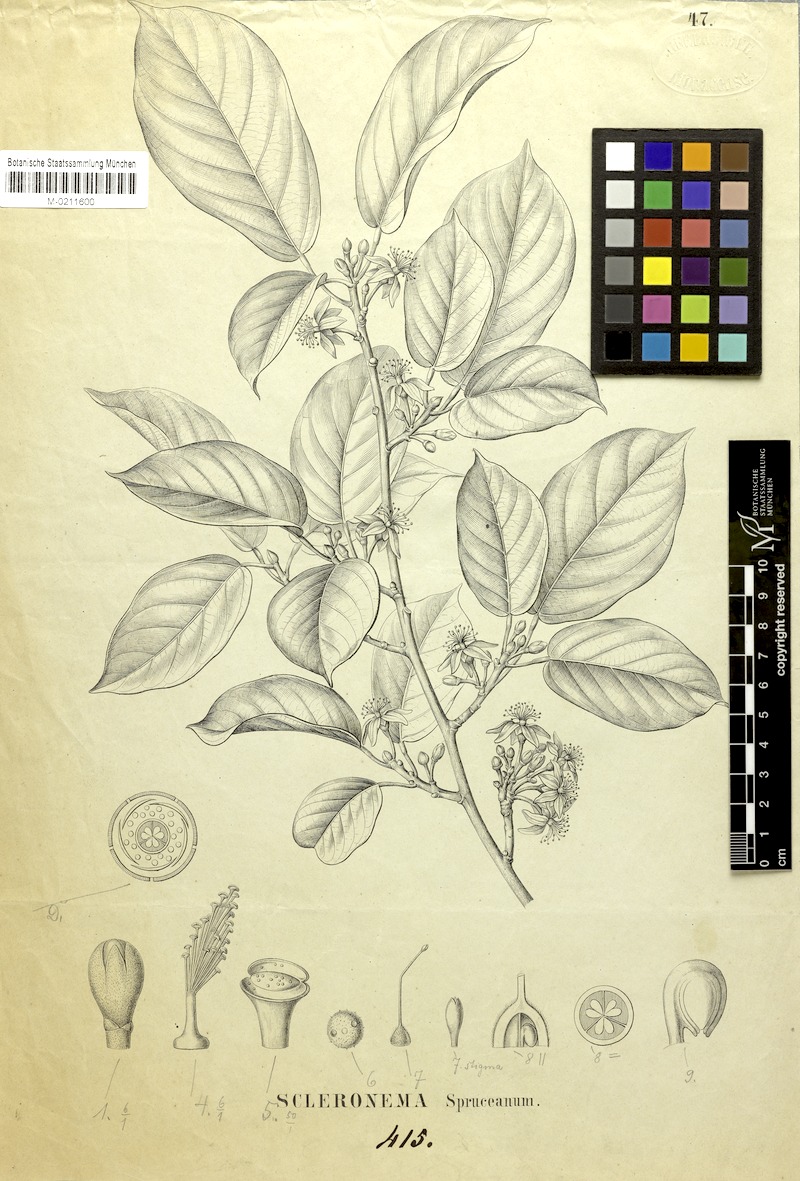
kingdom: Plantae
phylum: Tracheophyta
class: Magnoliopsida
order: Malvales
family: Malvaceae
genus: Scleronema
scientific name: Scleronema spruceana
